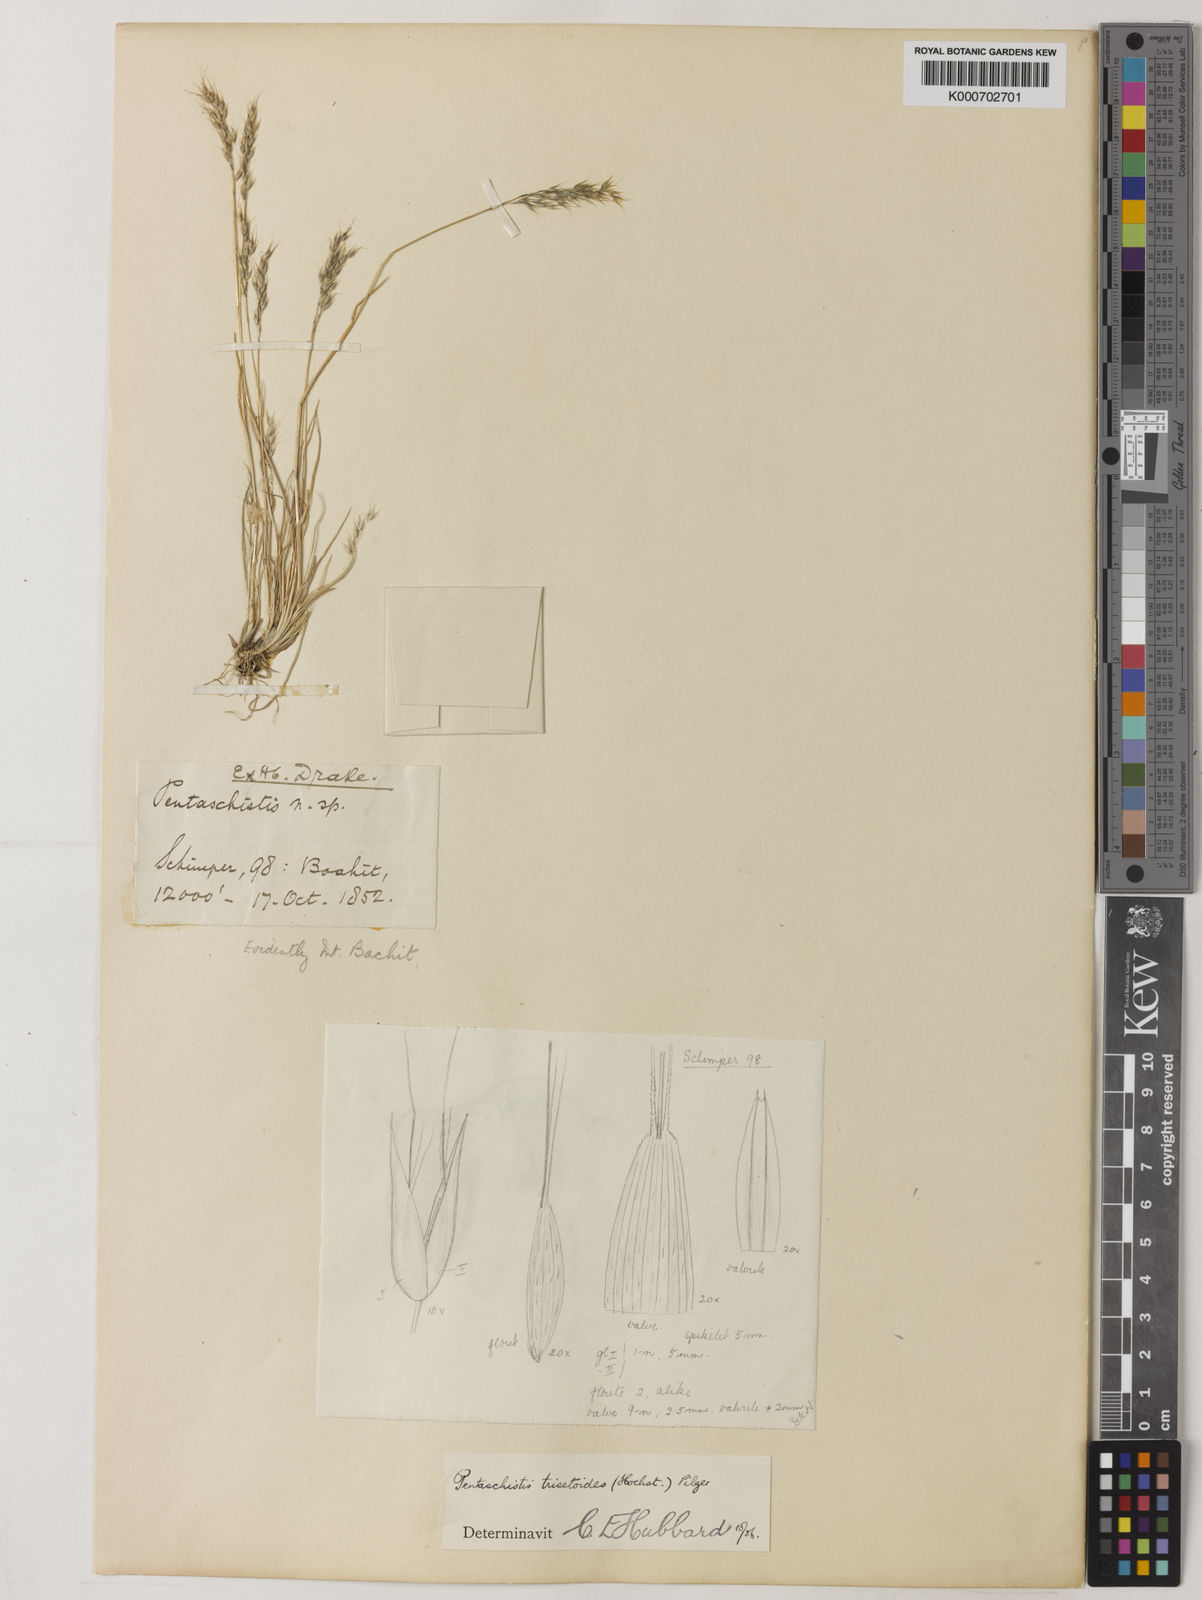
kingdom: Plantae
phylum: Tracheophyta
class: Liliopsida
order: Poales
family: Poaceae
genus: Pentaschistis
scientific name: Pentaschistis
